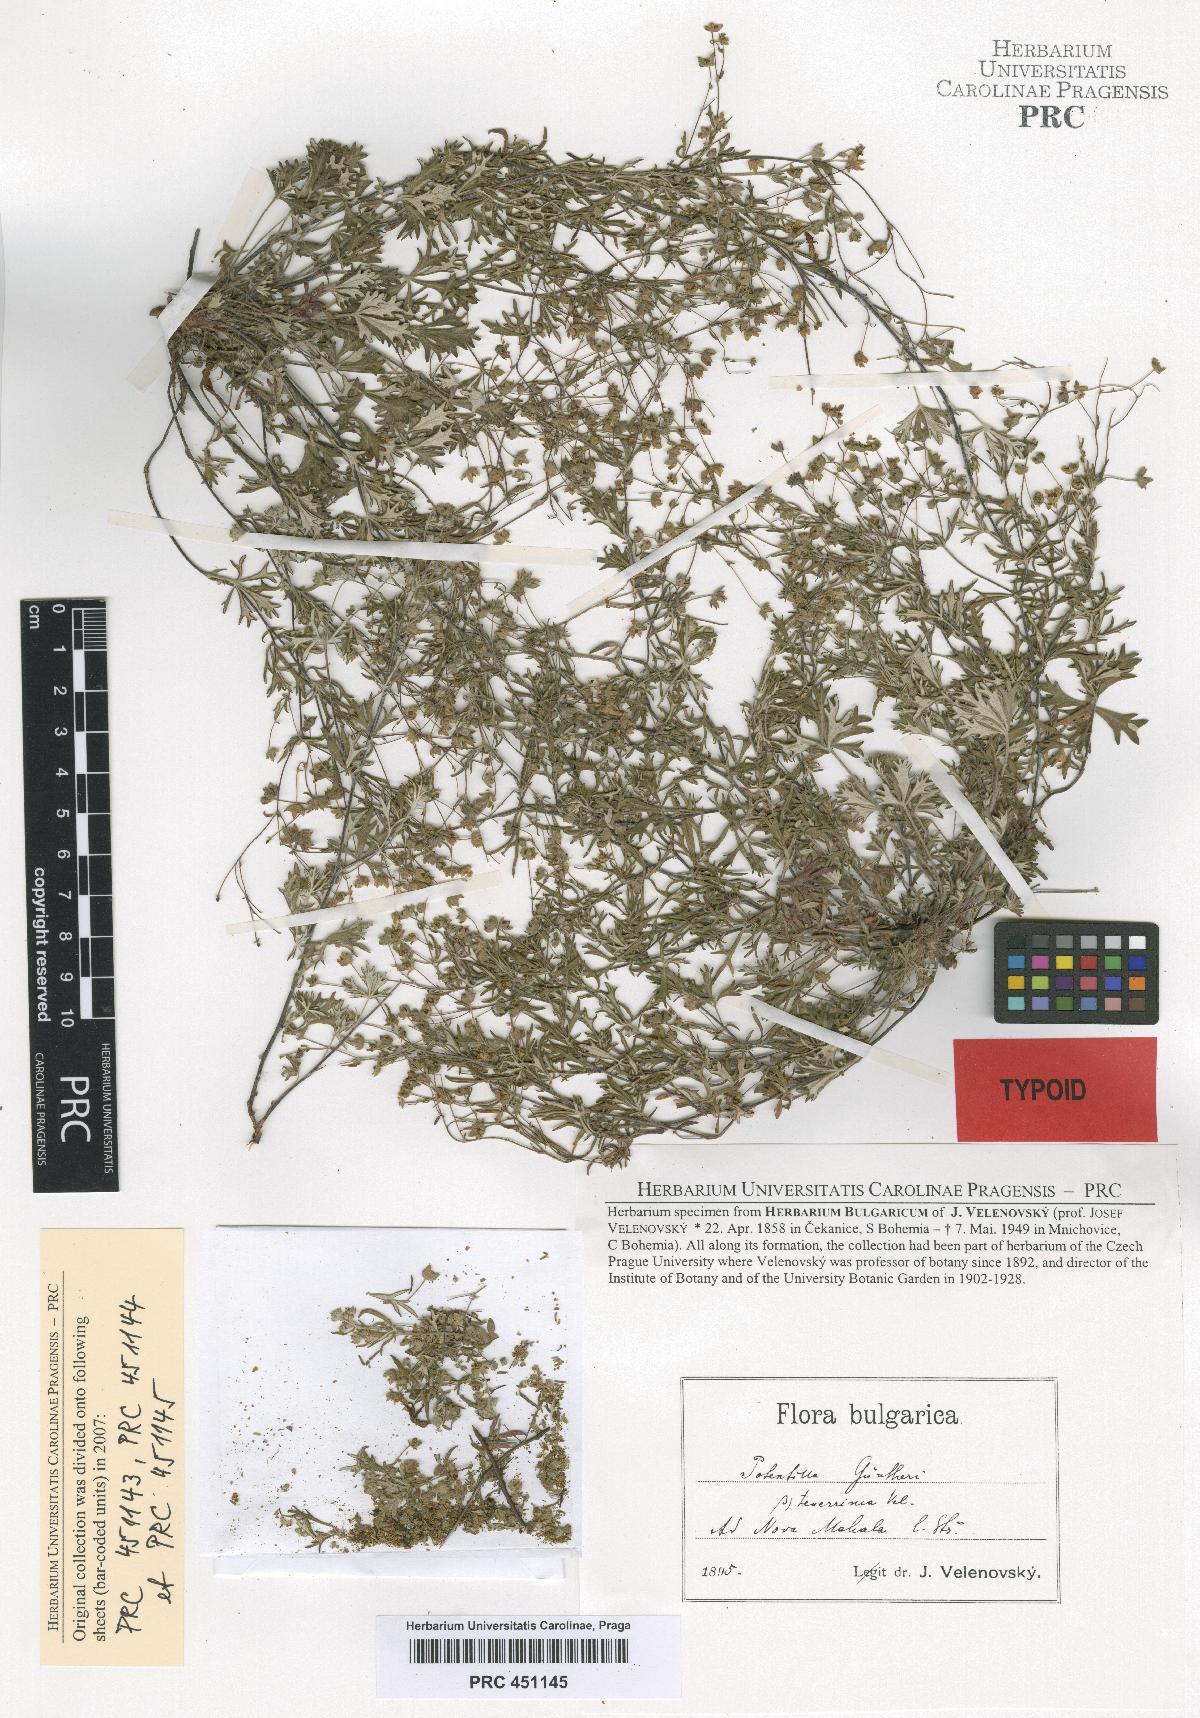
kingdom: Plantae
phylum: Tracheophyta
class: Magnoliopsida
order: Rosales
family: Rosaceae
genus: Potentilla
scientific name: Potentilla
